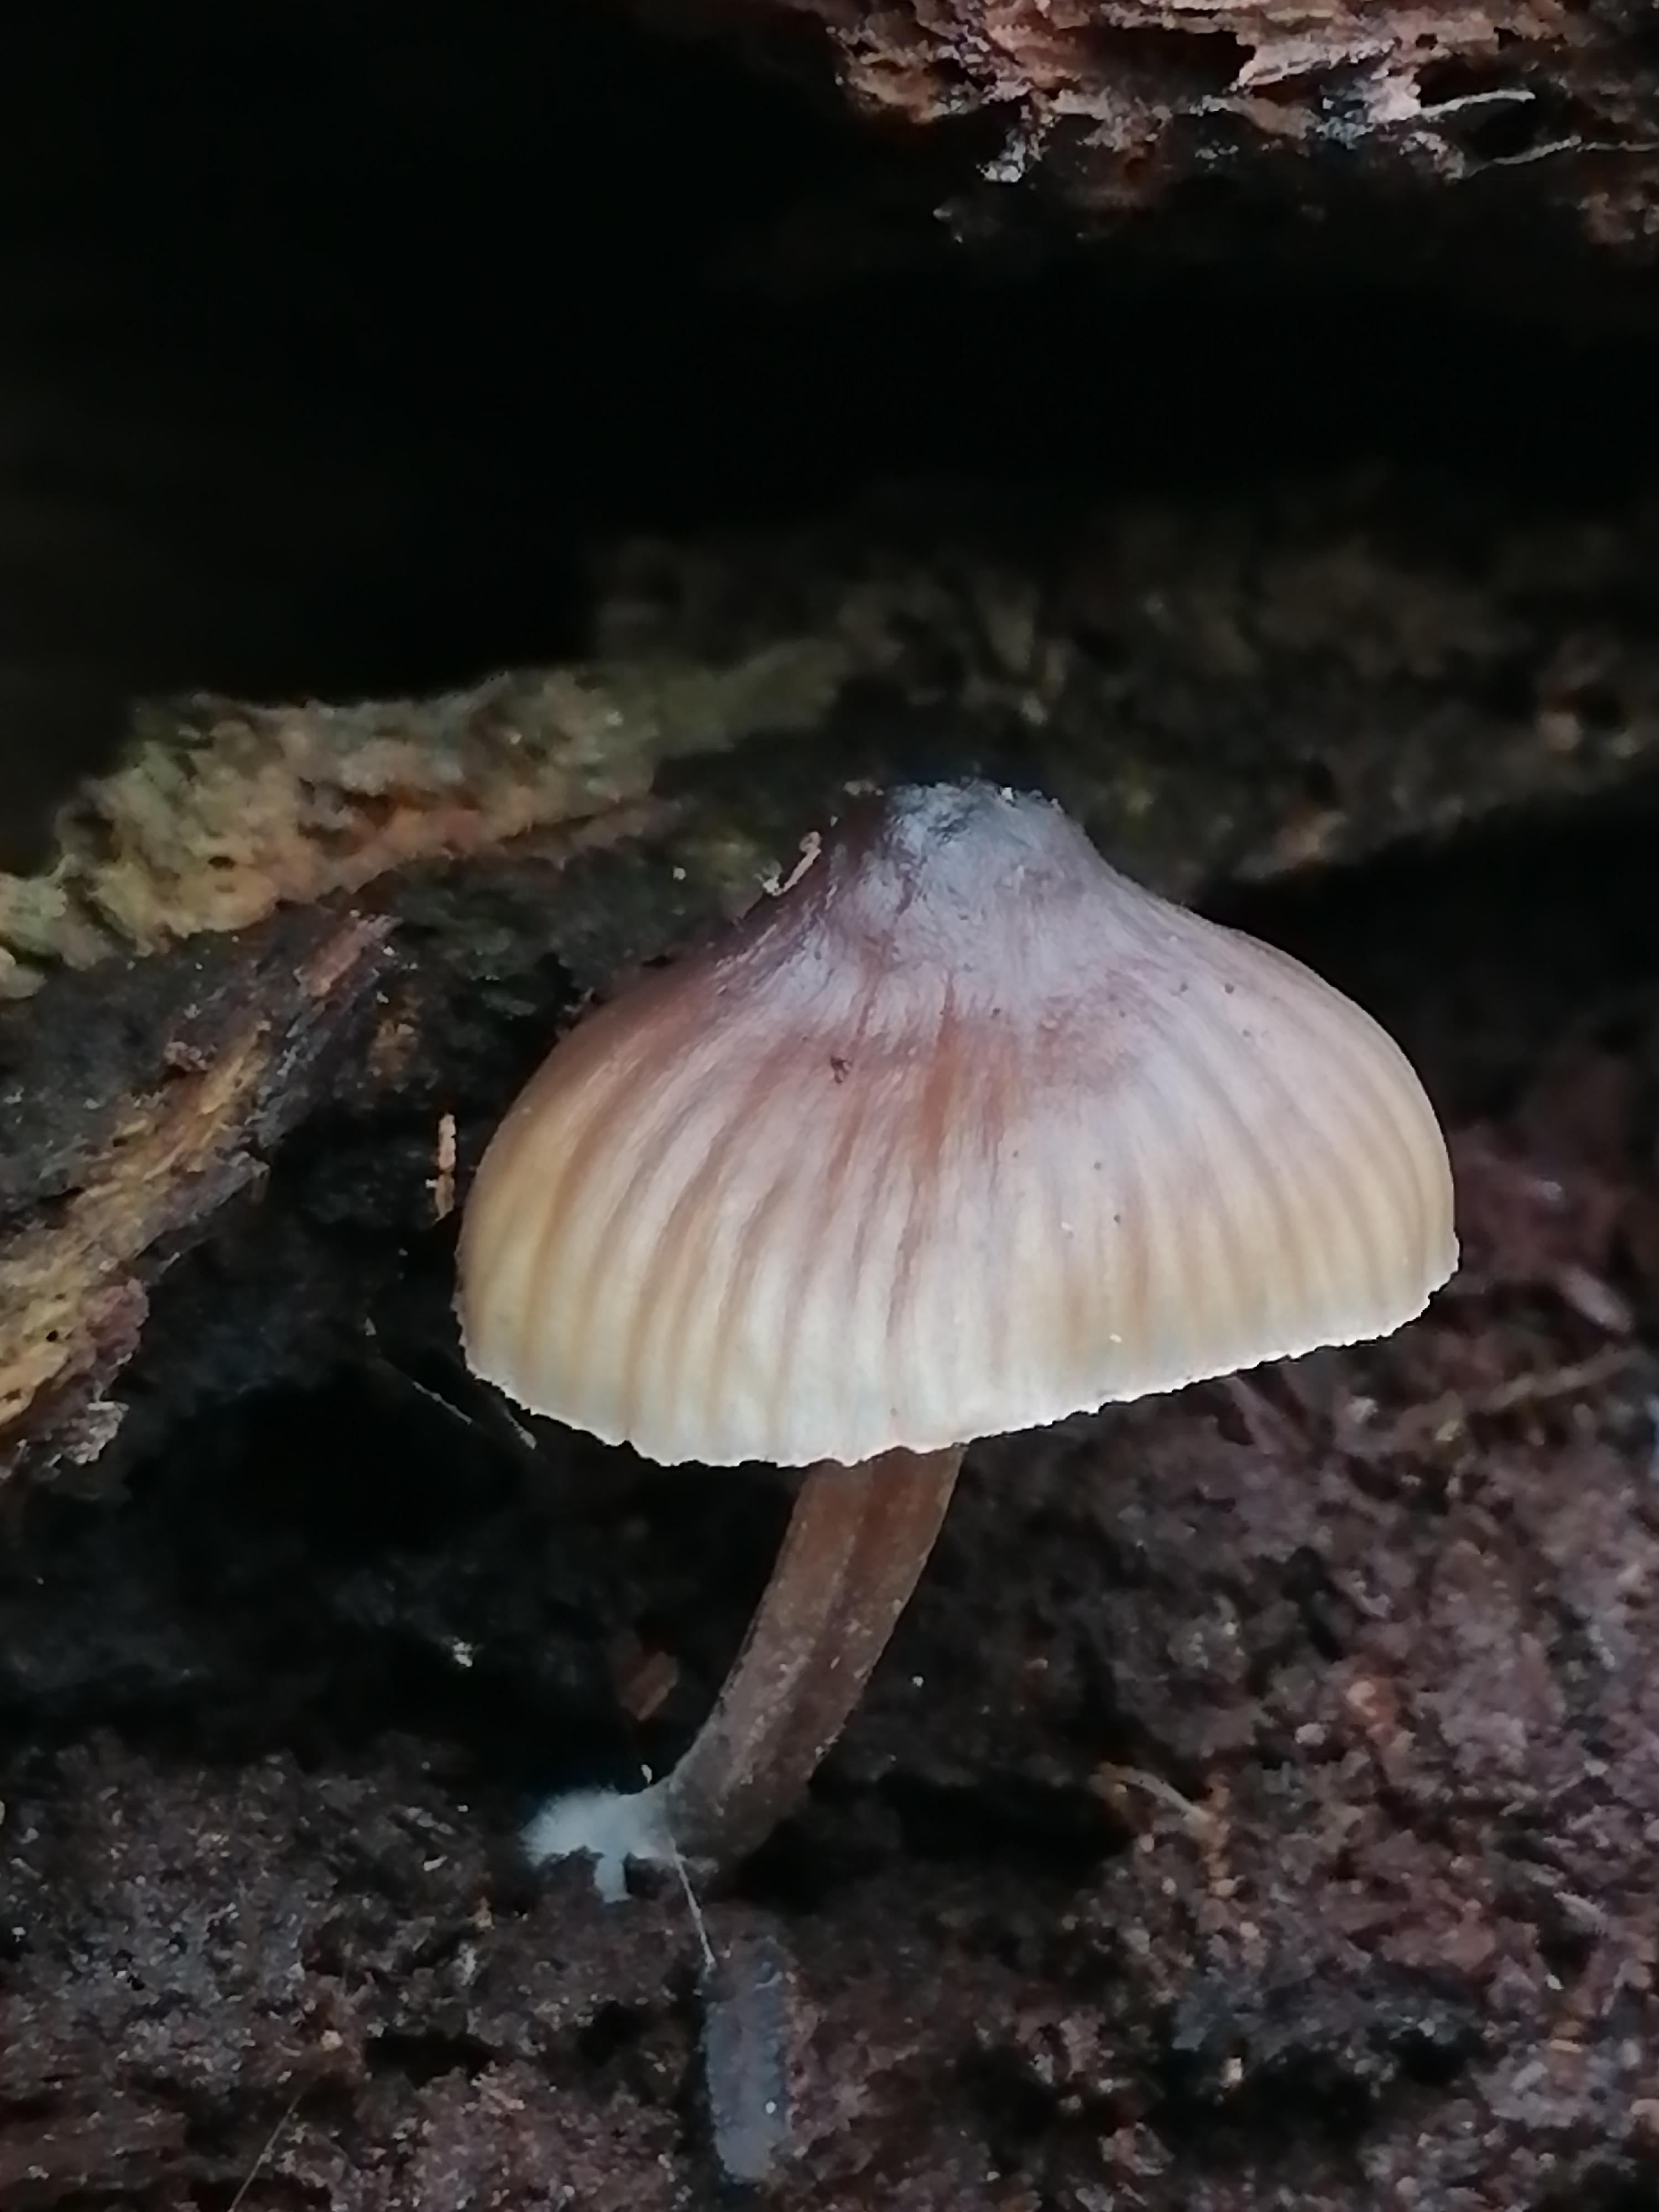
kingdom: Fungi
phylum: Basidiomycota
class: Agaricomycetes
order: Agaricales
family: Mycenaceae
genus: Mycena
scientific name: Mycena
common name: huesvamp
